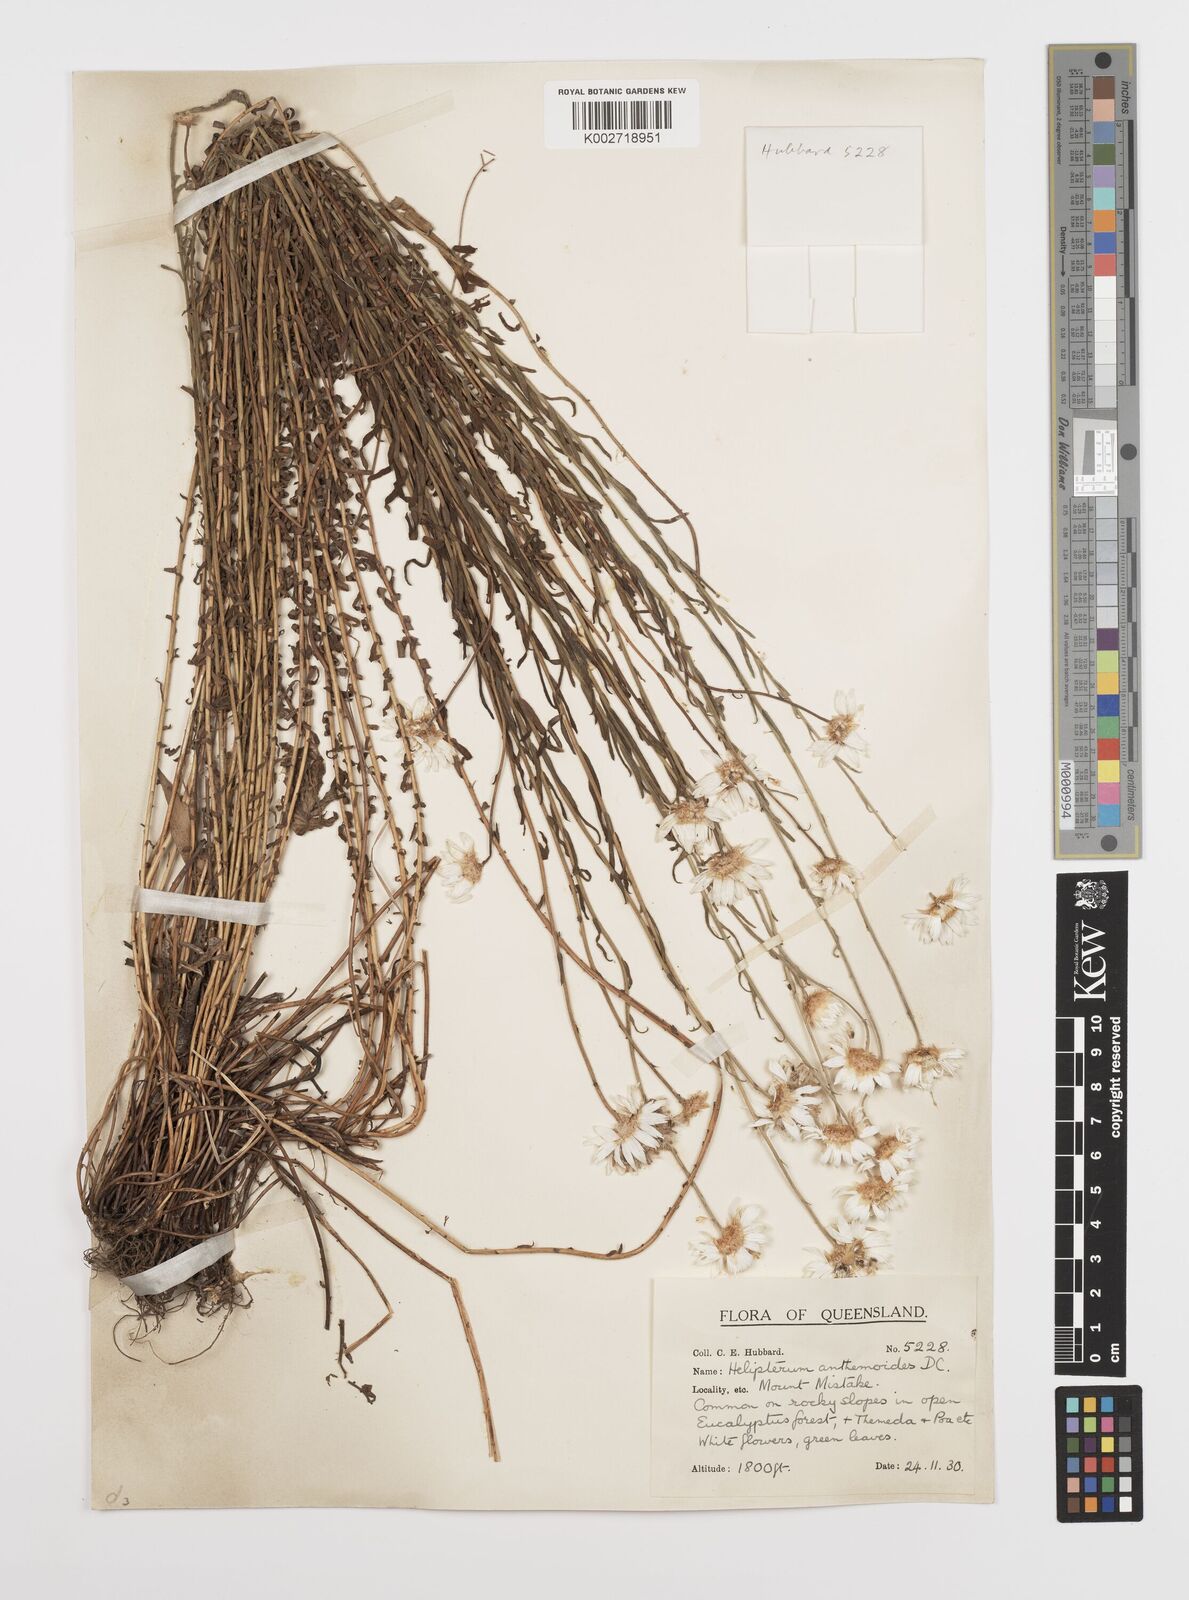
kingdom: Plantae
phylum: Tracheophyta
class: Magnoliopsida
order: Asterales
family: Asteraceae
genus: Rhodanthe
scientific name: Rhodanthe anthemoides
